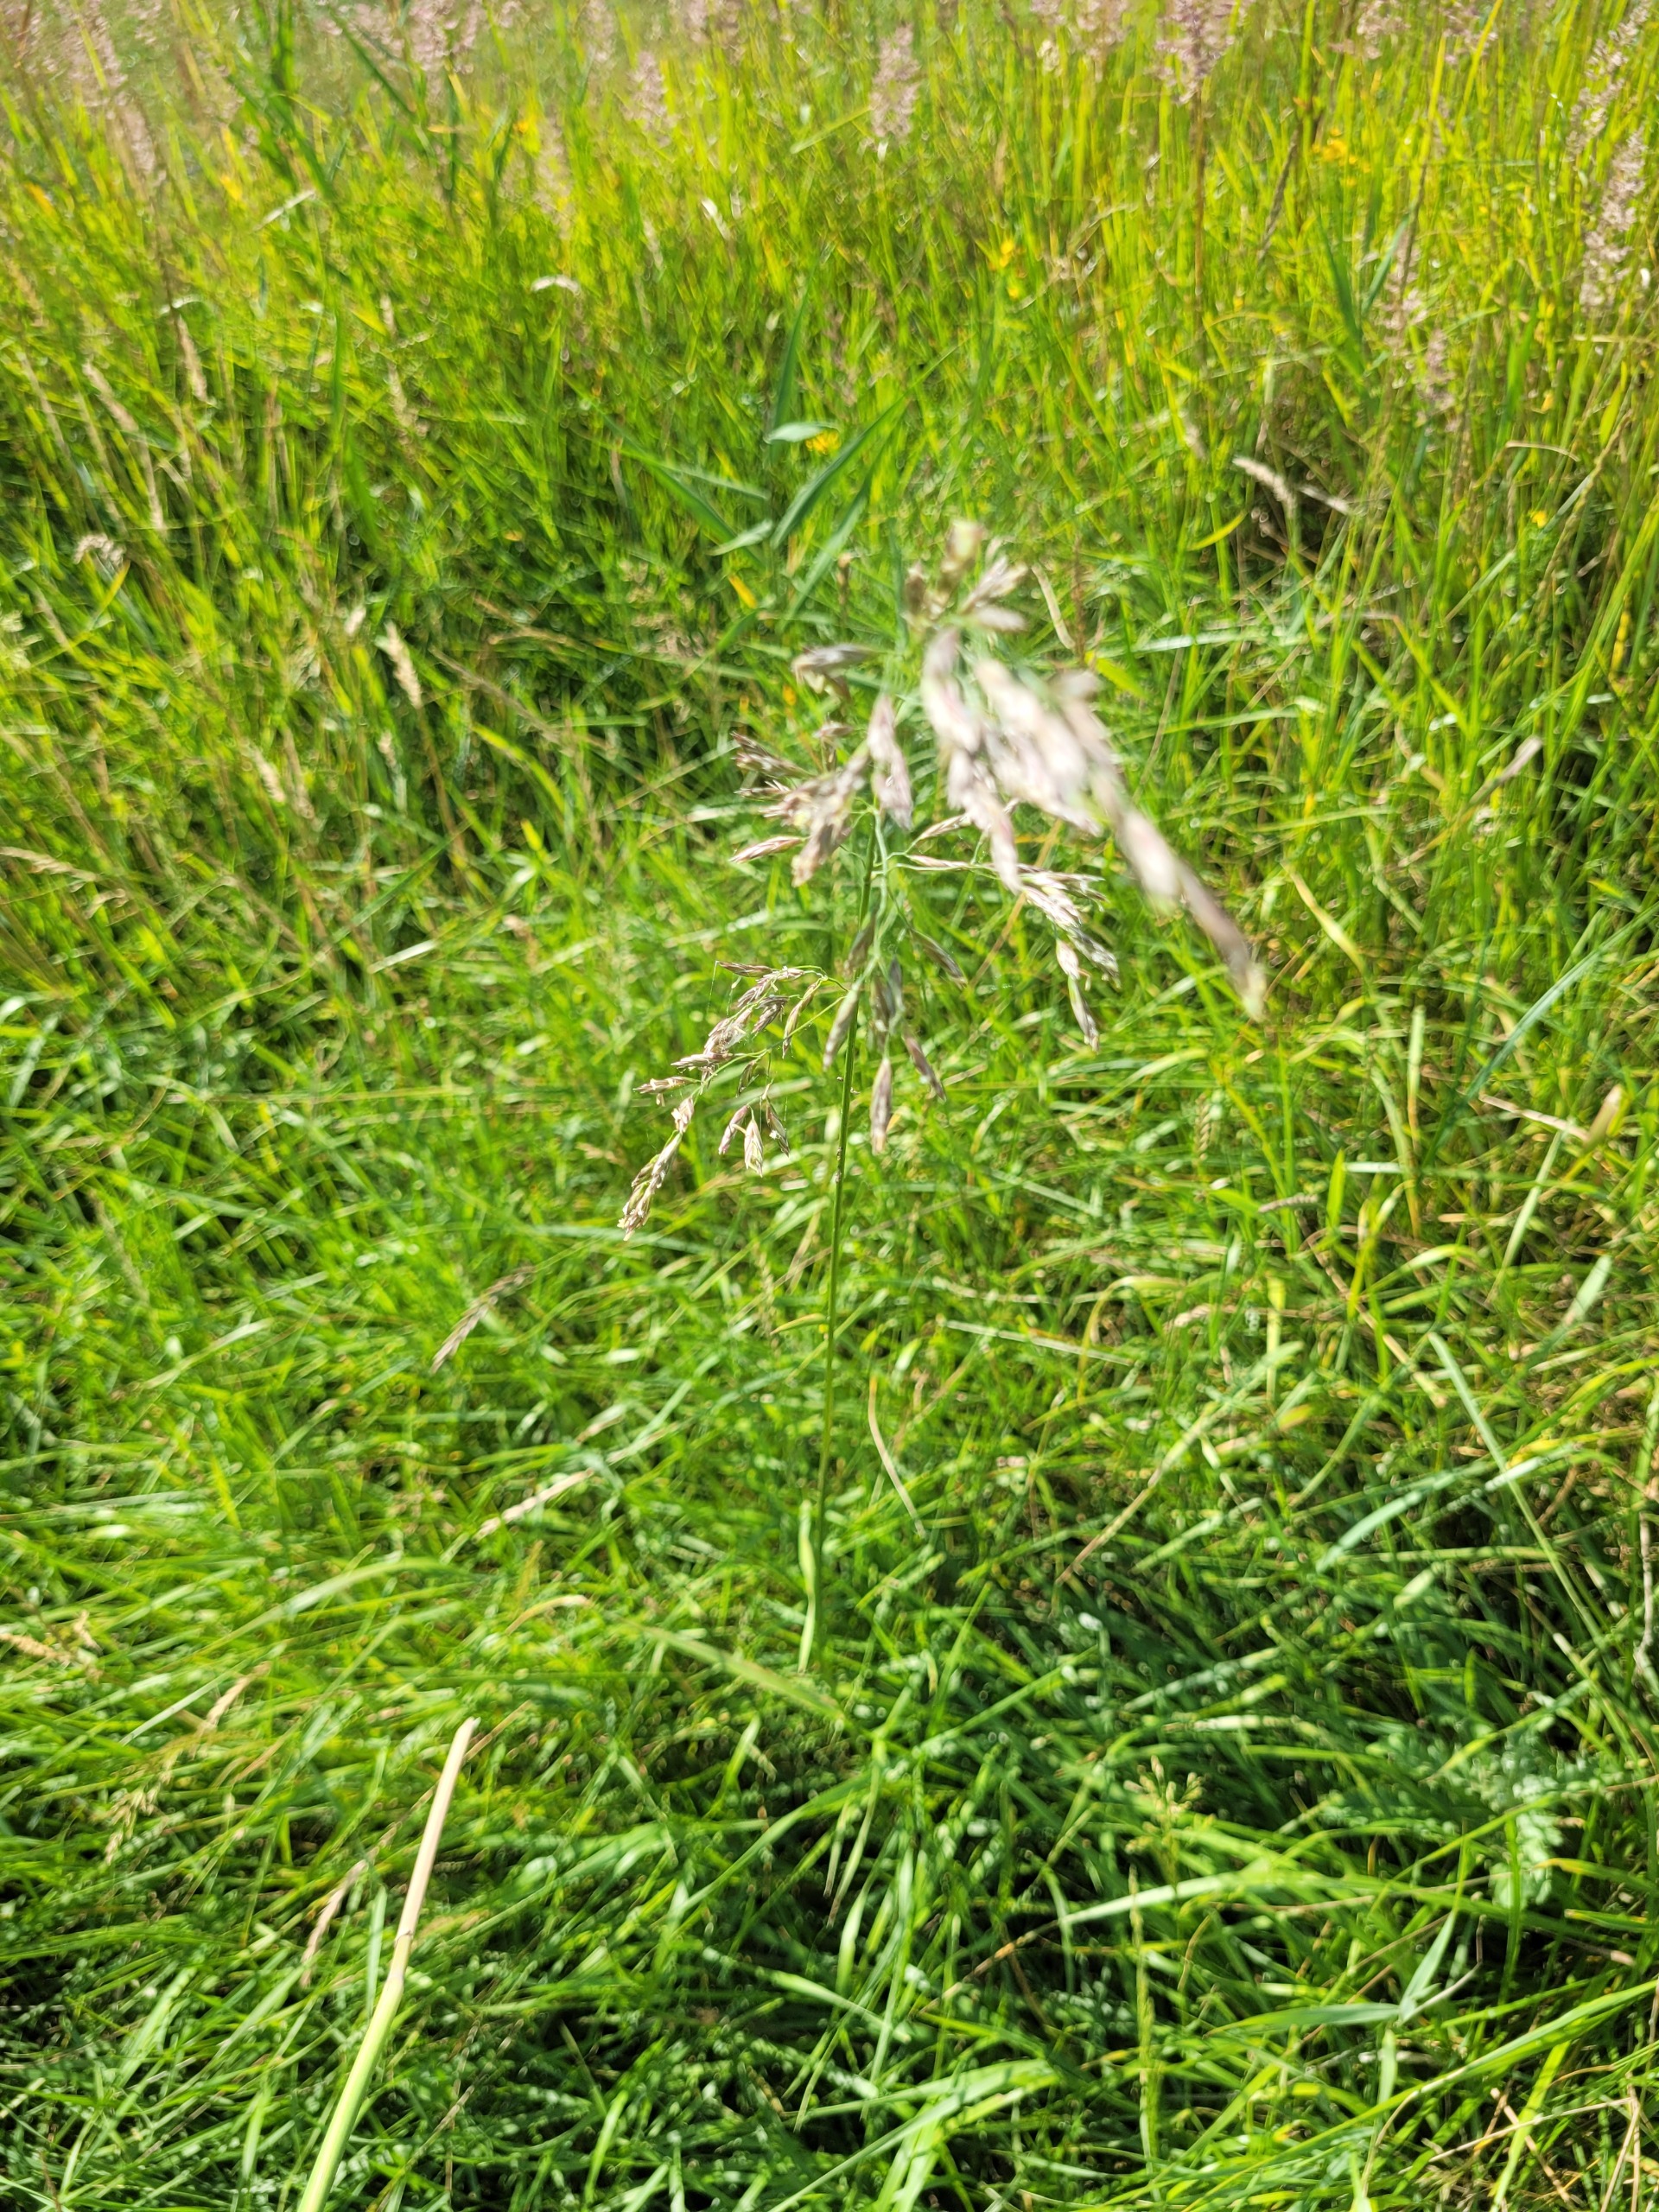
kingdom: Plantae
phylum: Tracheophyta
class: Liliopsida
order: Poales
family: Poaceae
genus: Lolium
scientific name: Lolium arundinaceum
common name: Strand-svingel
